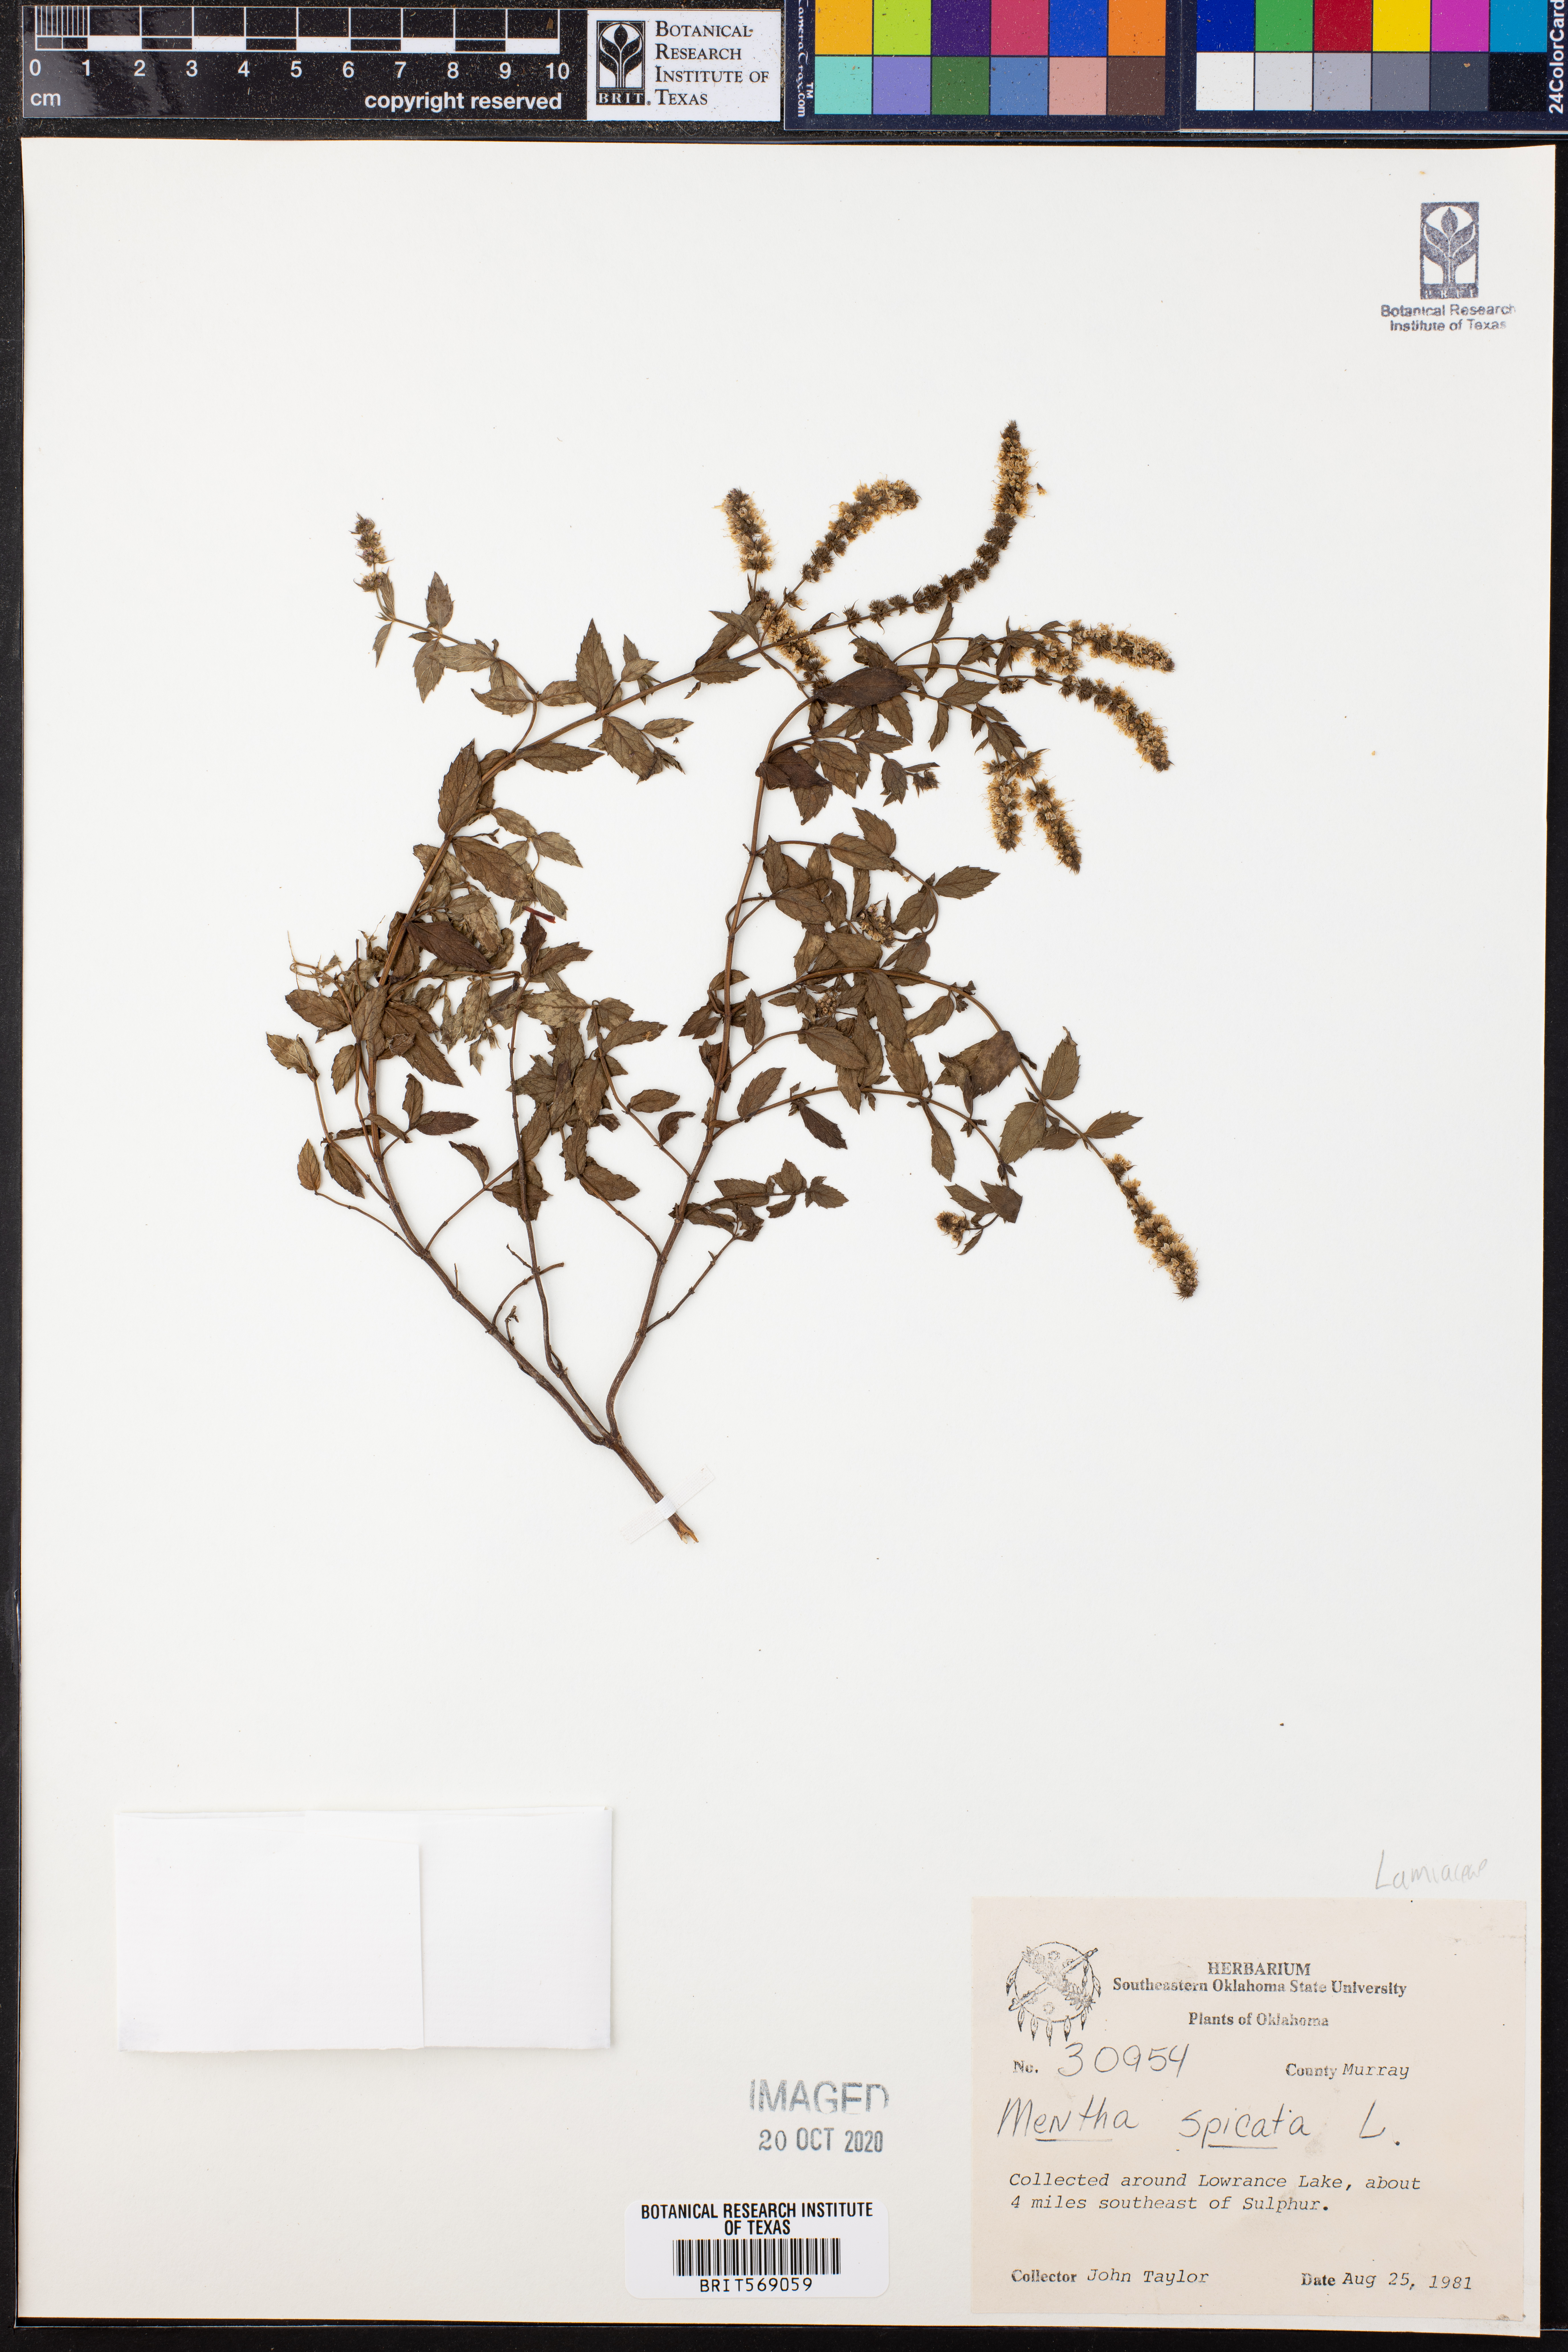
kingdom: Plantae
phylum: Tracheophyta
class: Magnoliopsida
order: Lamiales
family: Lamiaceae
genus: Mentha
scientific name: Mentha spicata
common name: Spearmint
